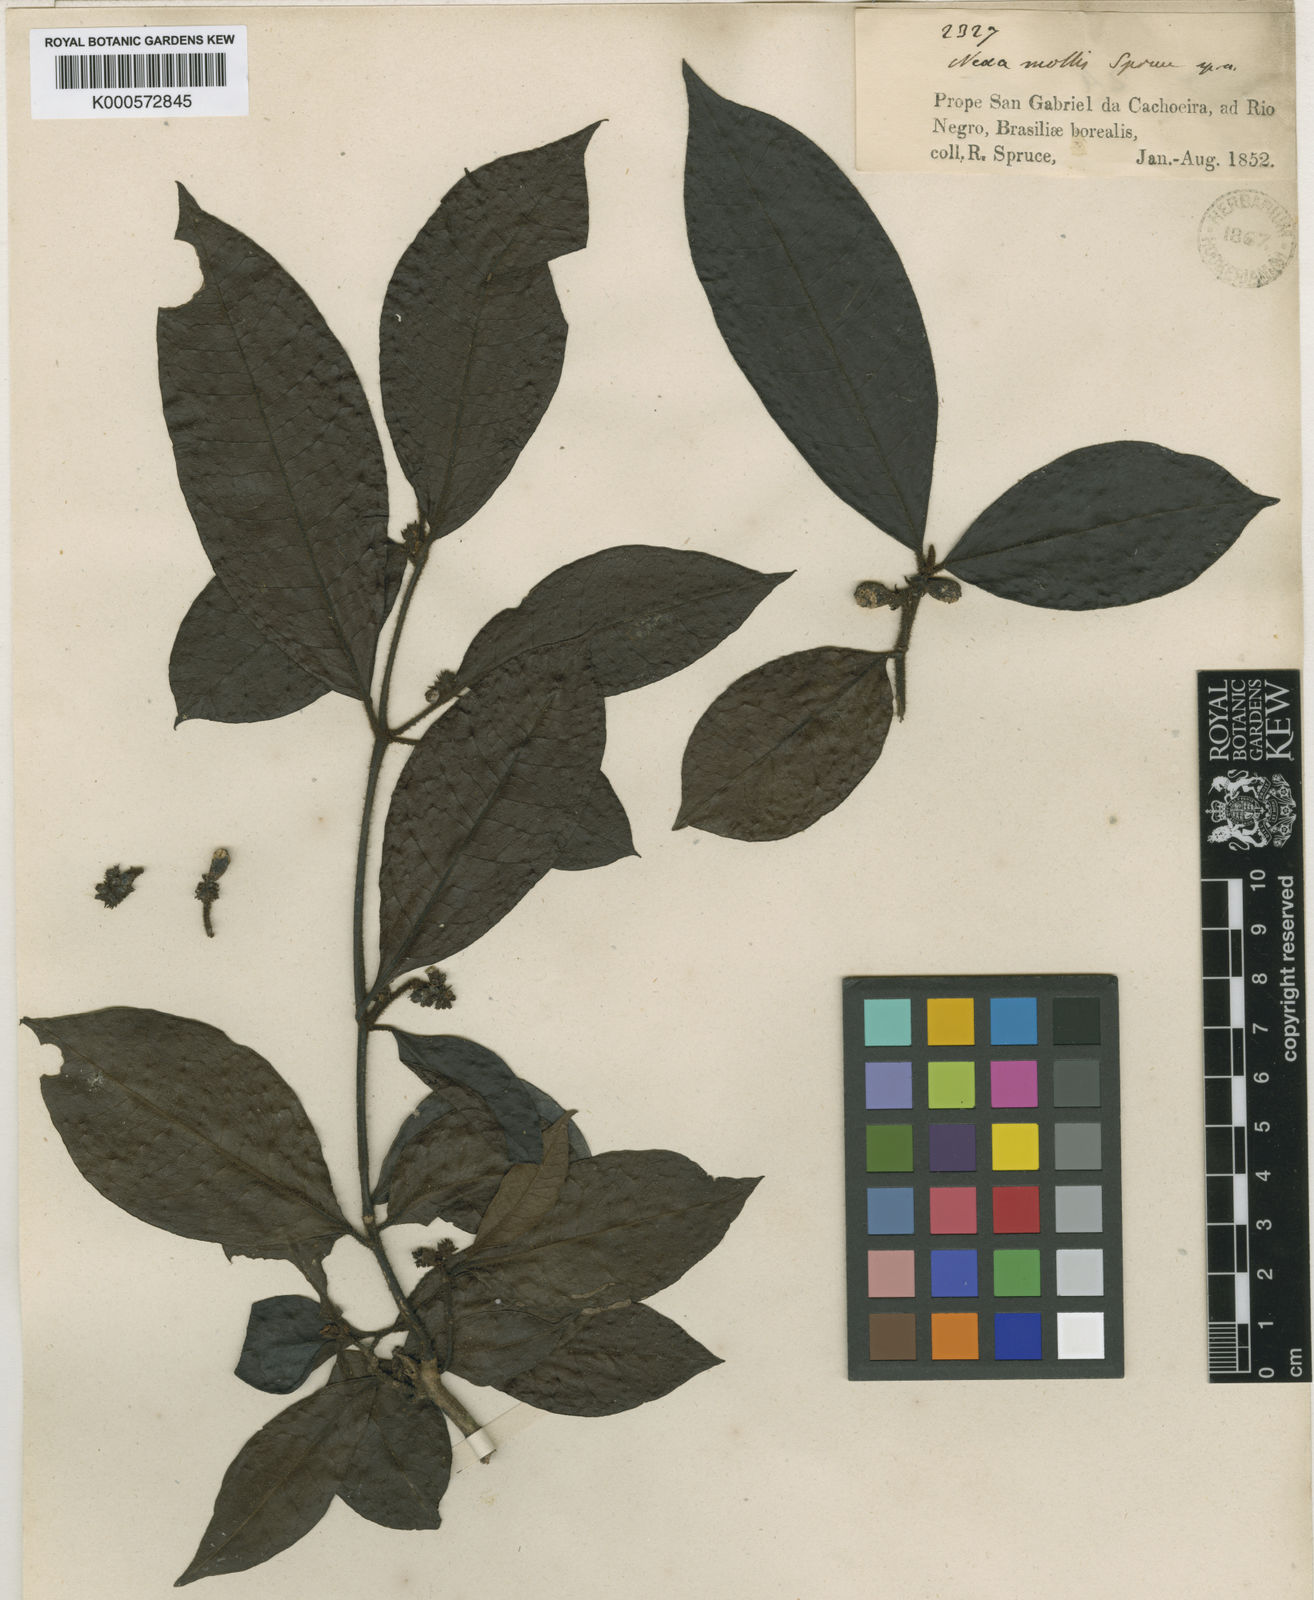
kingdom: Plantae
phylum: Tracheophyta
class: Magnoliopsida
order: Caryophyllales
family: Nyctaginaceae
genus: Neea
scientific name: Neea mollis
